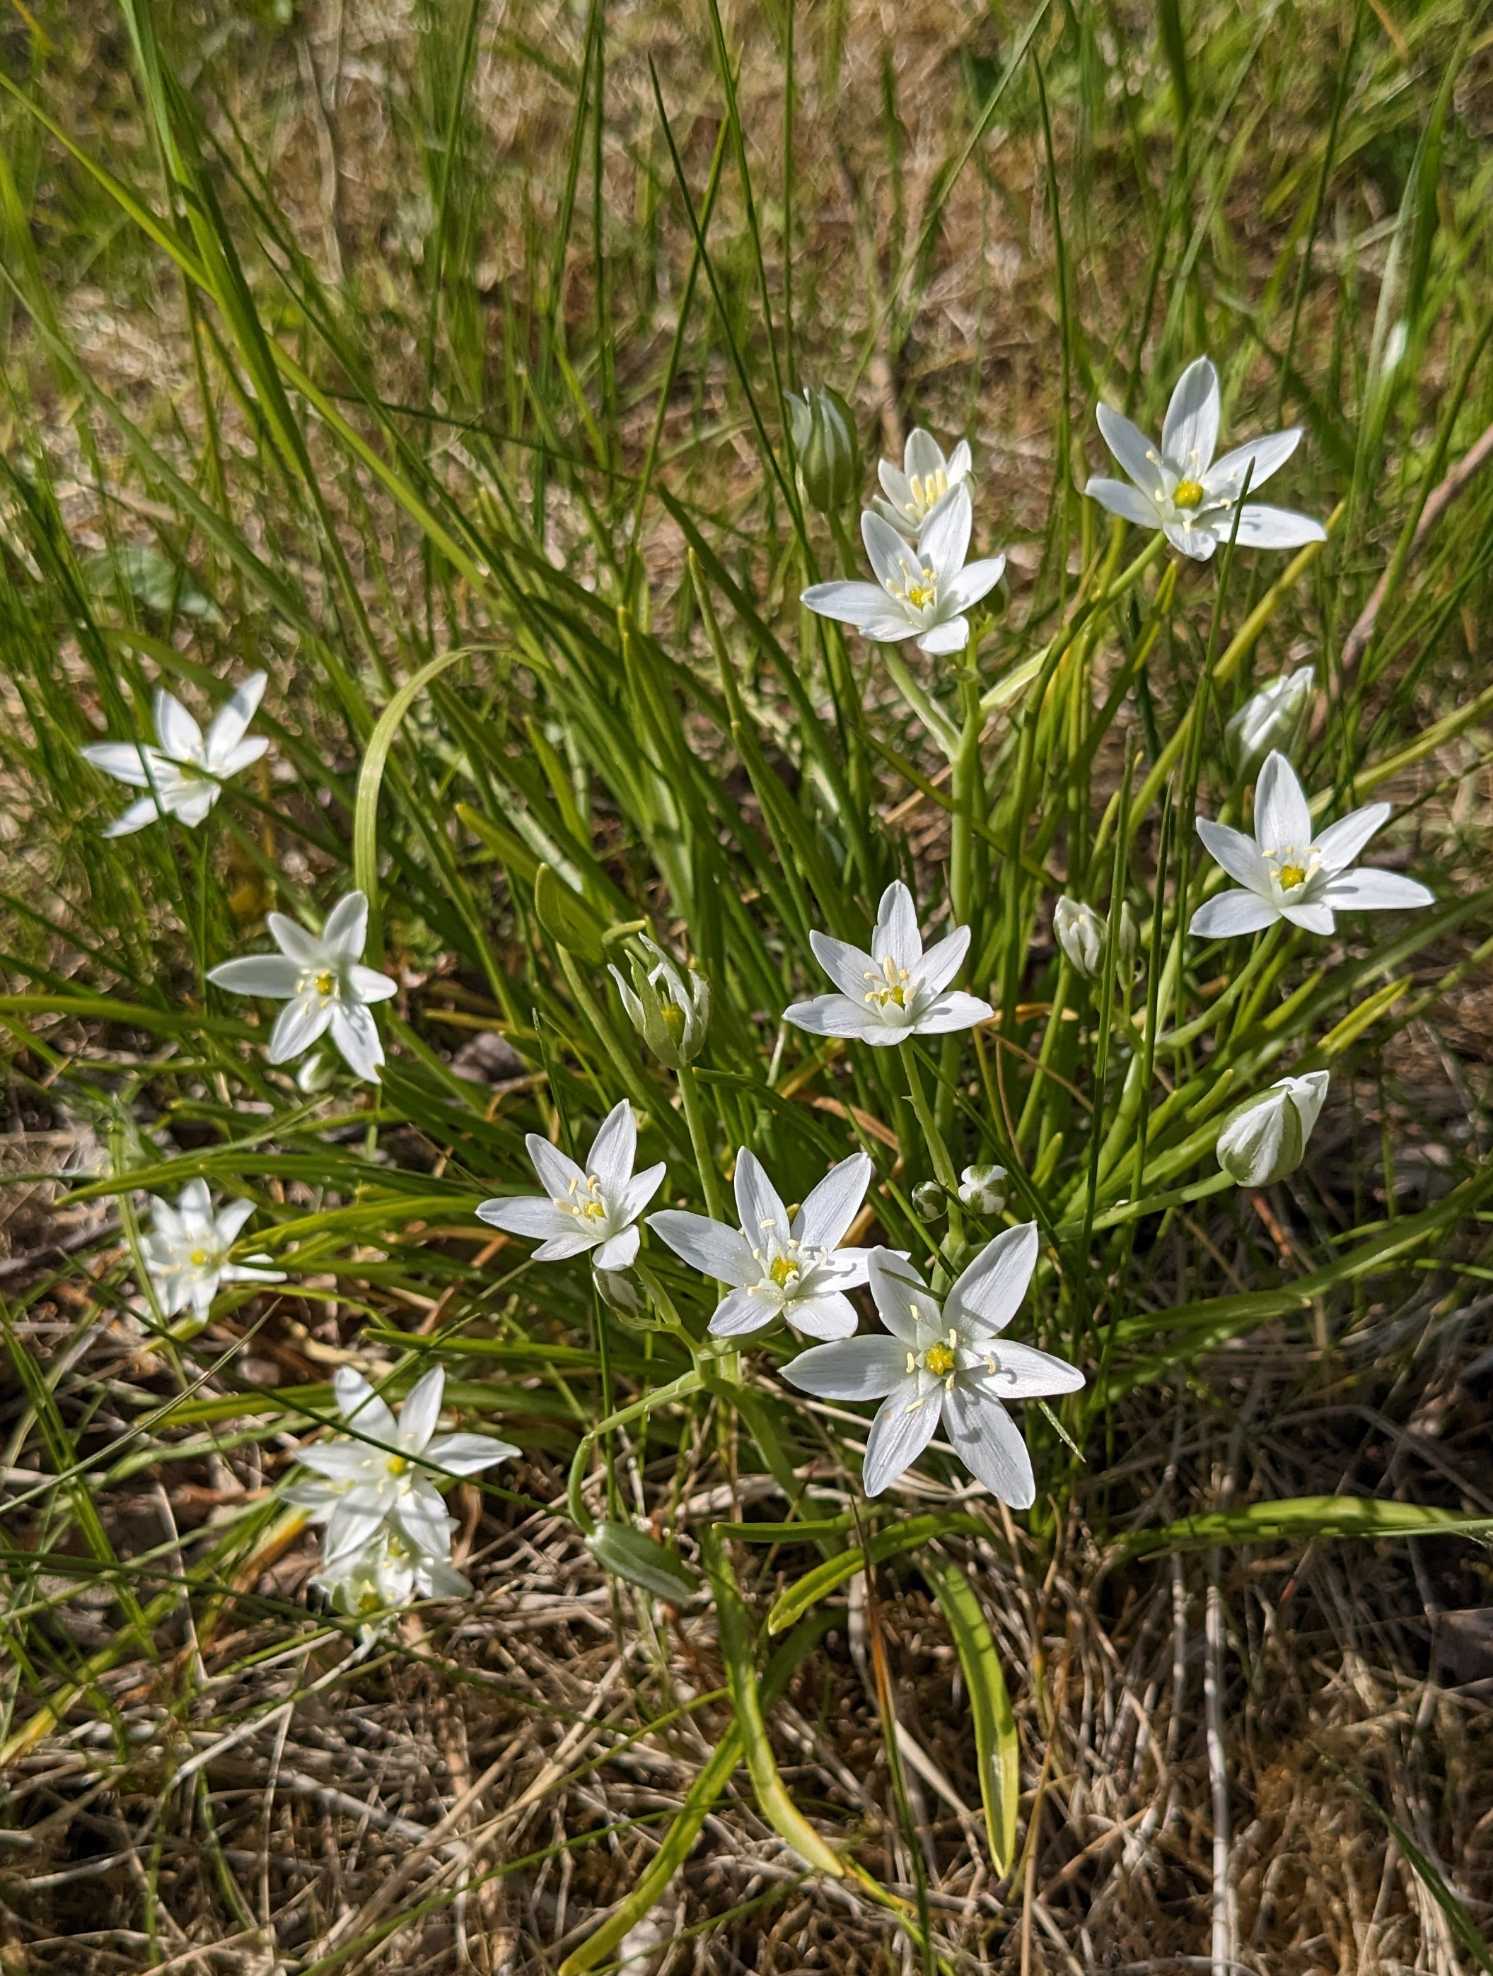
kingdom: Plantae
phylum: Tracheophyta
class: Liliopsida
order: Asparagales
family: Asparagaceae
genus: Ornithogalum
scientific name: Ornithogalum umbellatum
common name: Kost-fuglemælk
